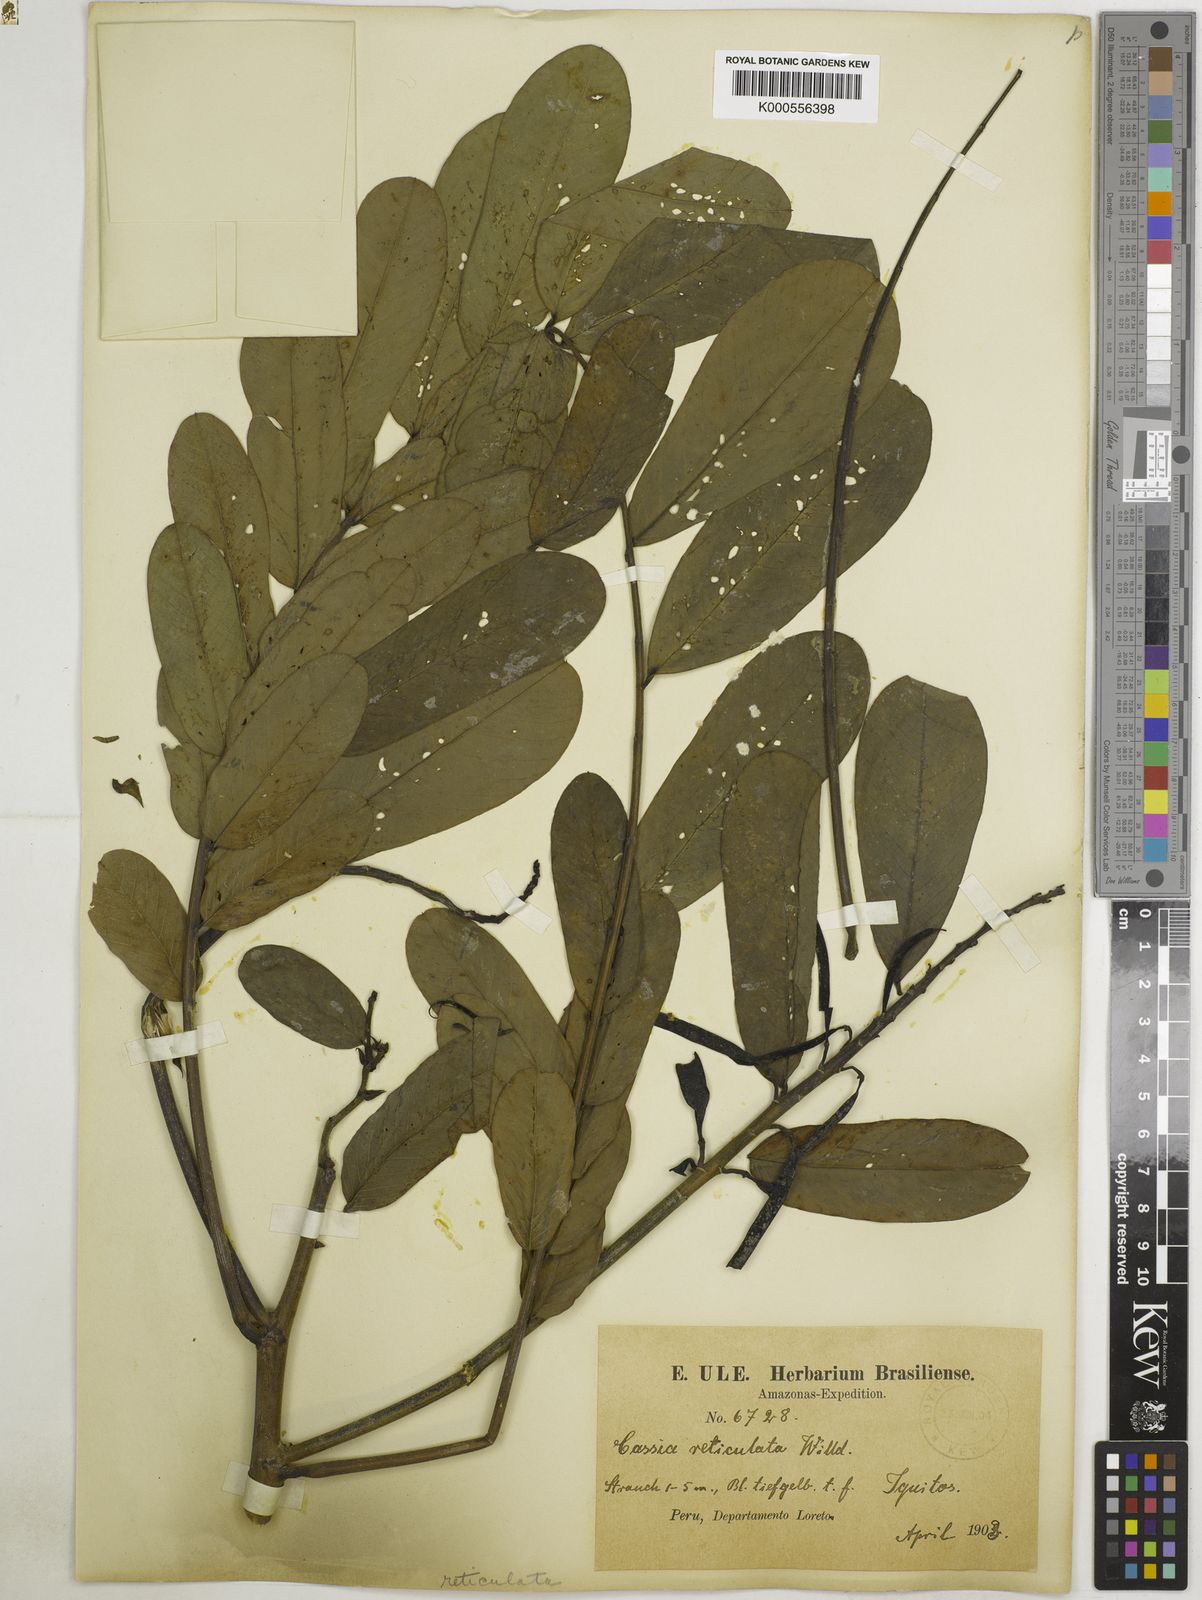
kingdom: Plantae
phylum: Tracheophyta
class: Magnoliopsida
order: Fabales
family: Fabaceae
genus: Senna
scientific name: Senna reticulata
